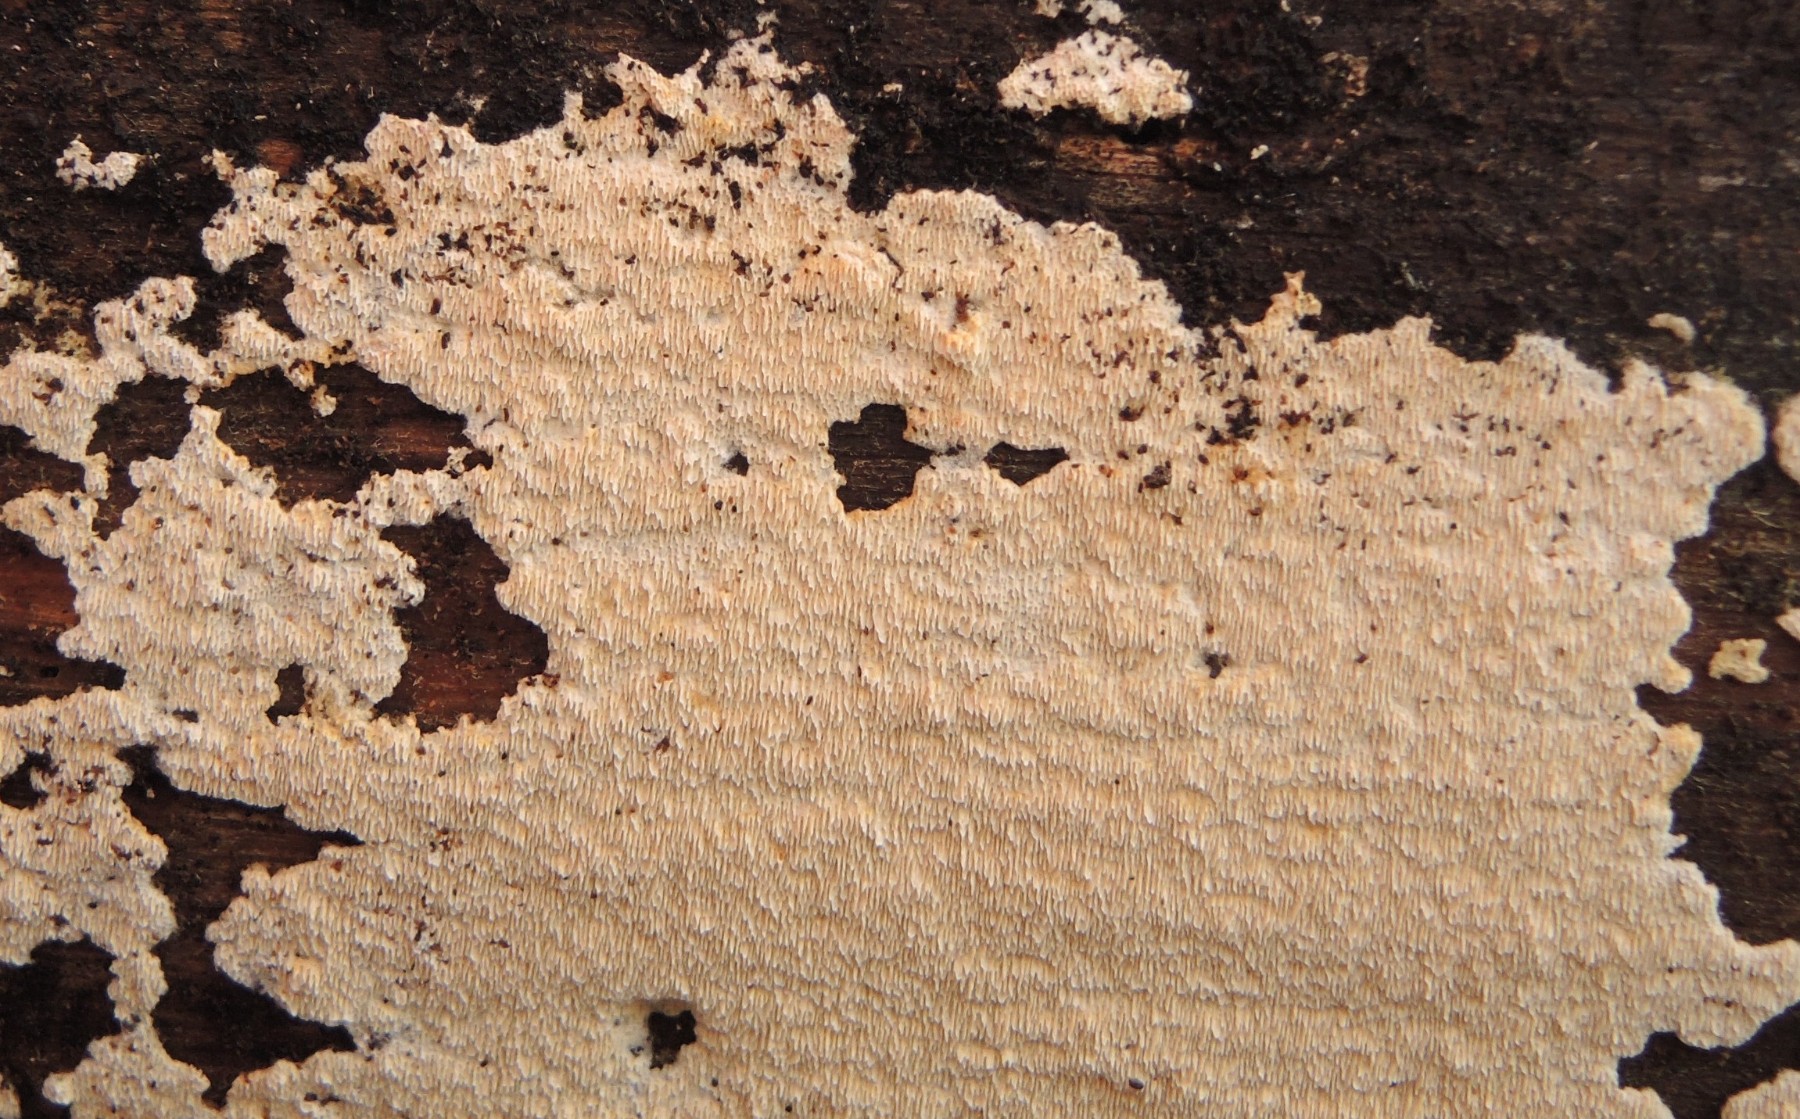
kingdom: Fungi
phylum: Basidiomycota
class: Agaricomycetes
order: Hymenochaetales
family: Schizoporaceae
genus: Schizopora
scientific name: Schizopora paradoxa
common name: hvid tandsvamp
